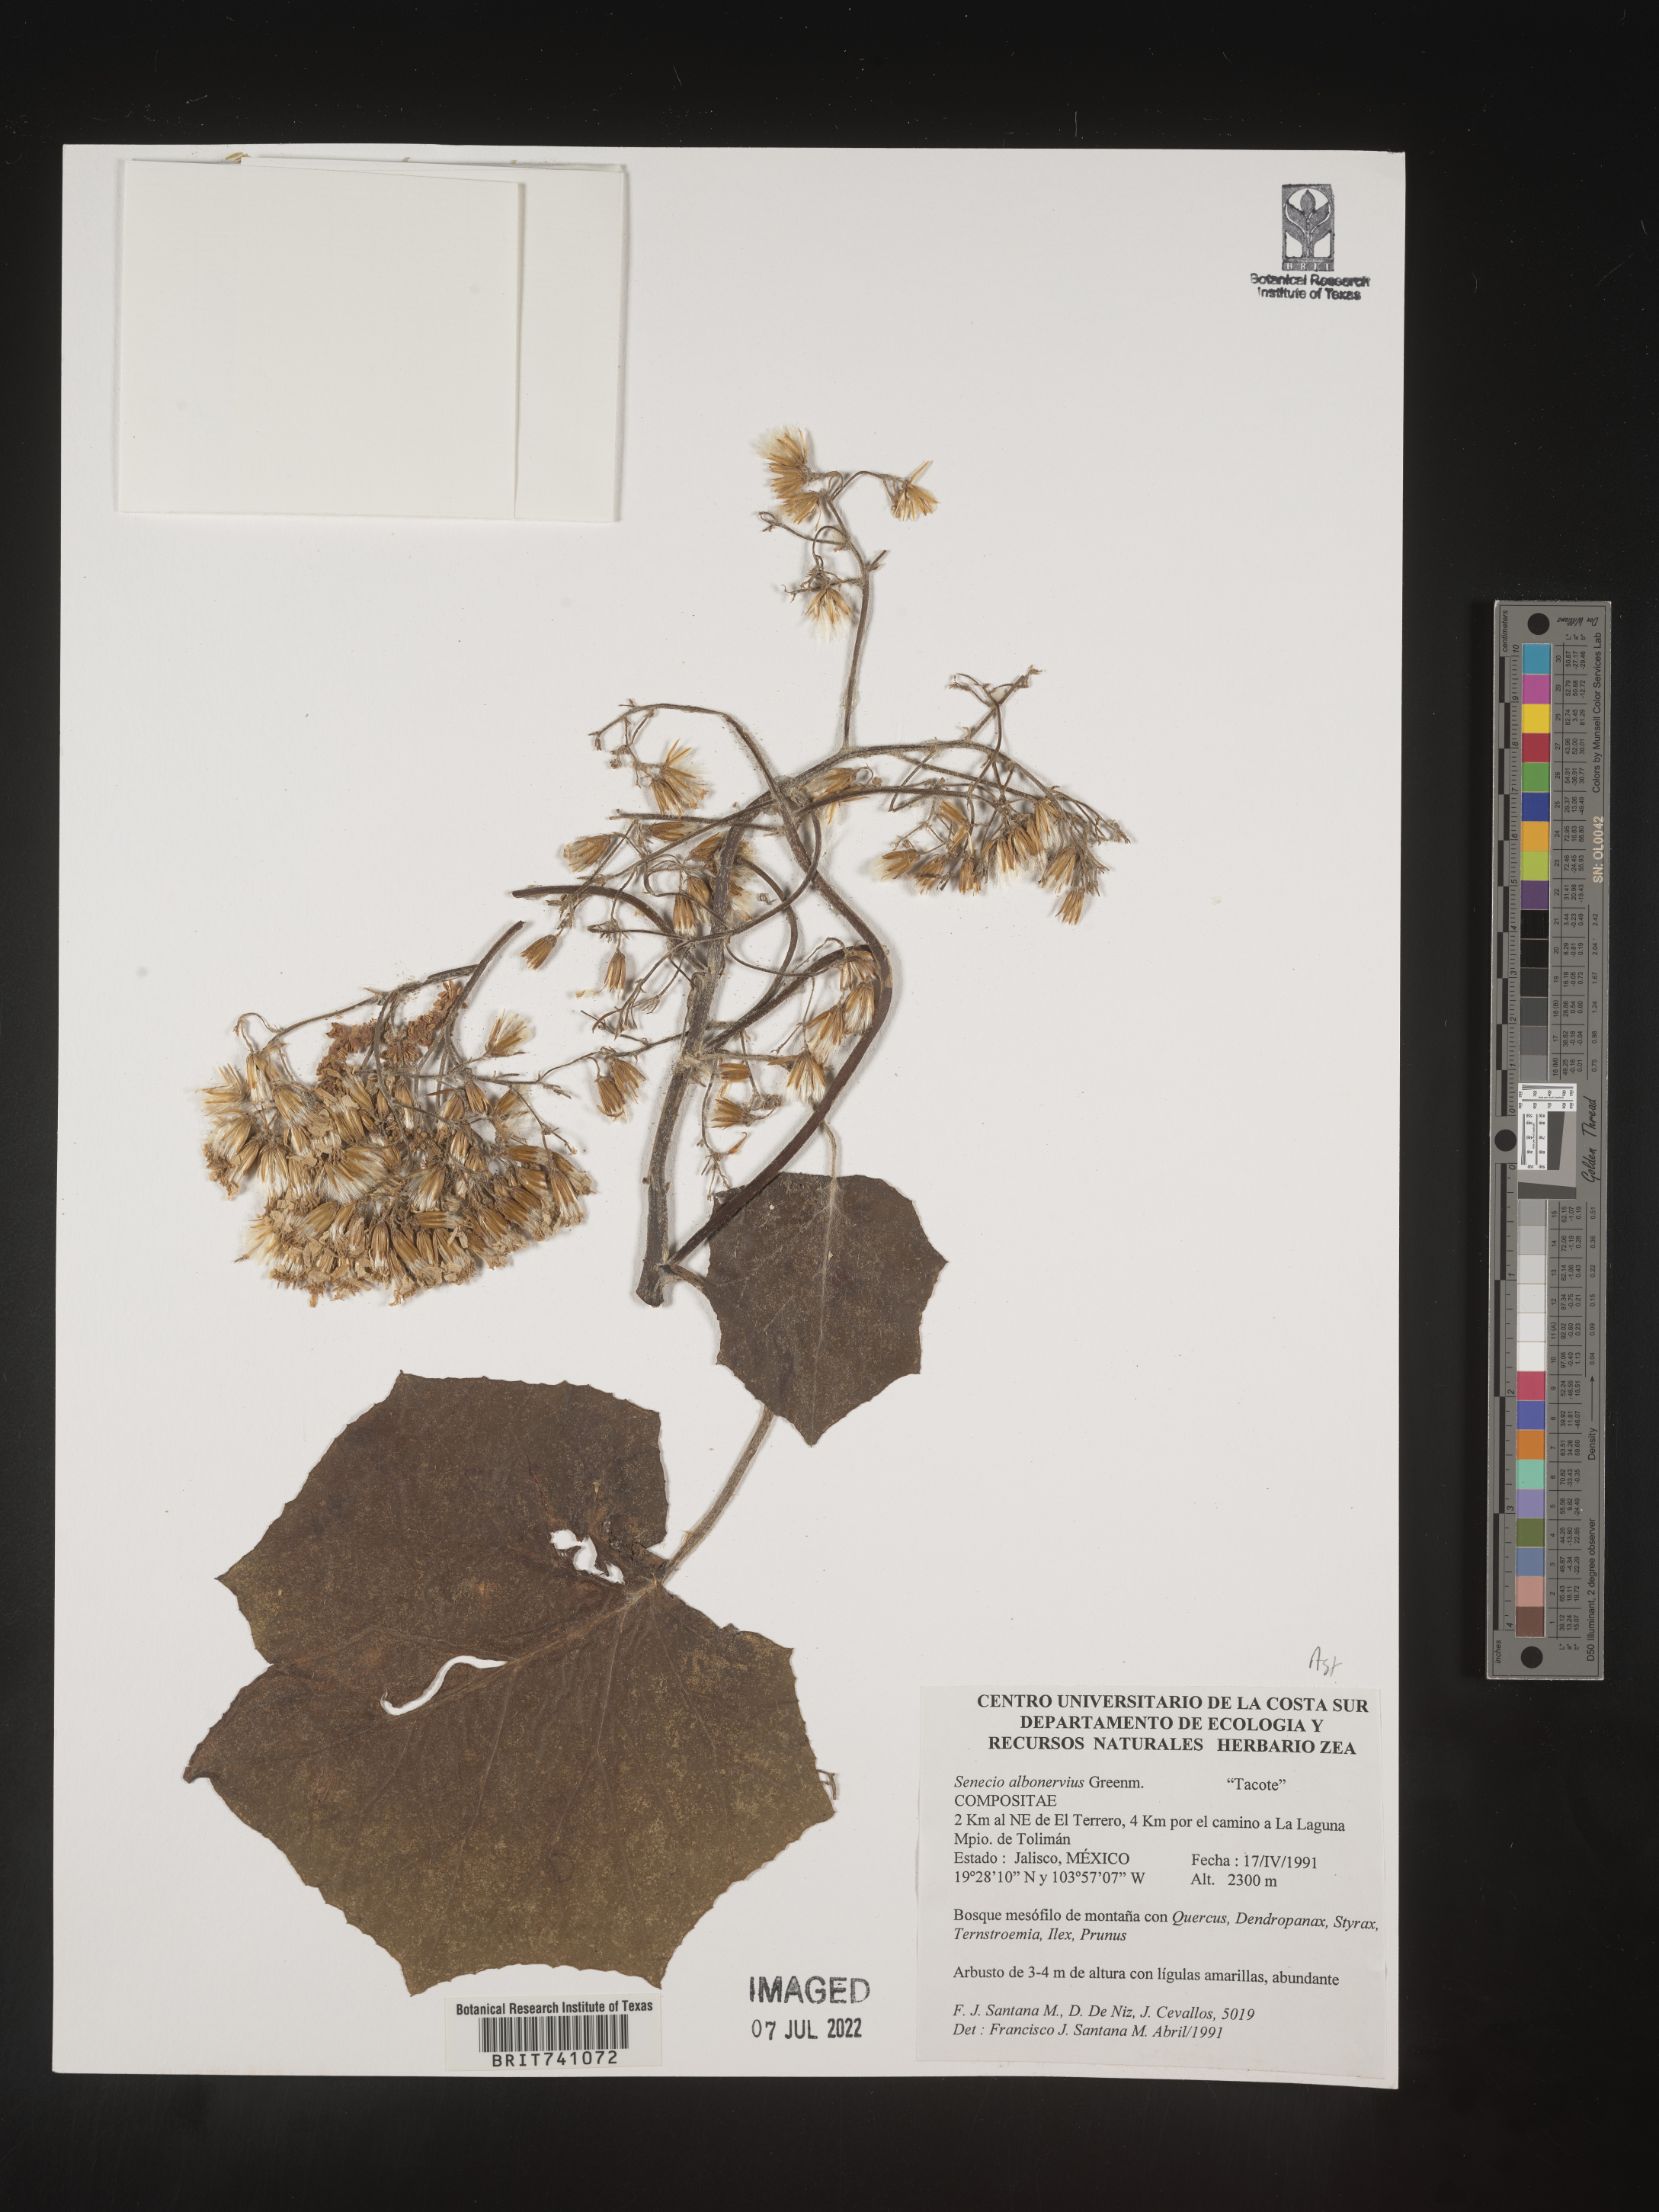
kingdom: Plantae
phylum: Tracheophyta
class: Magnoliopsida
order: Asterales
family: Asteraceae
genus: Senecio
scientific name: Senecio
